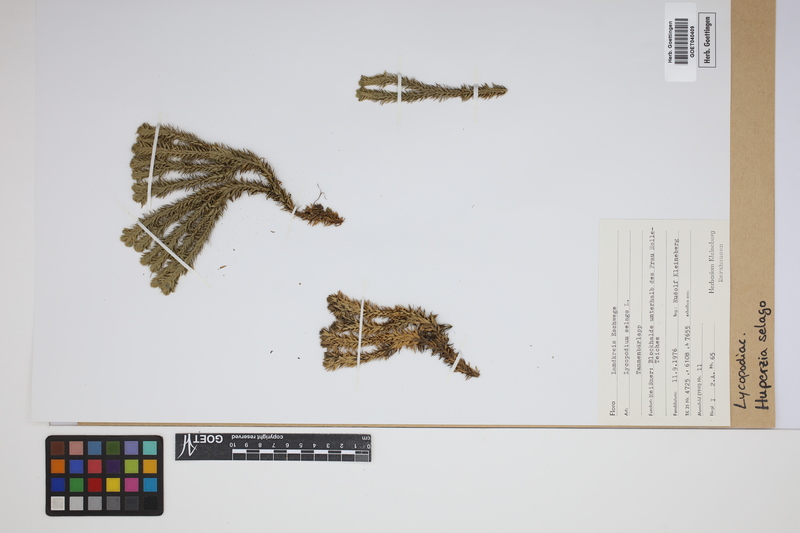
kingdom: Plantae
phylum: Tracheophyta
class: Lycopodiopsida
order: Lycopodiales
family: Lycopodiaceae
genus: Huperzia
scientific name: Huperzia selago
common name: Northern firmoss
